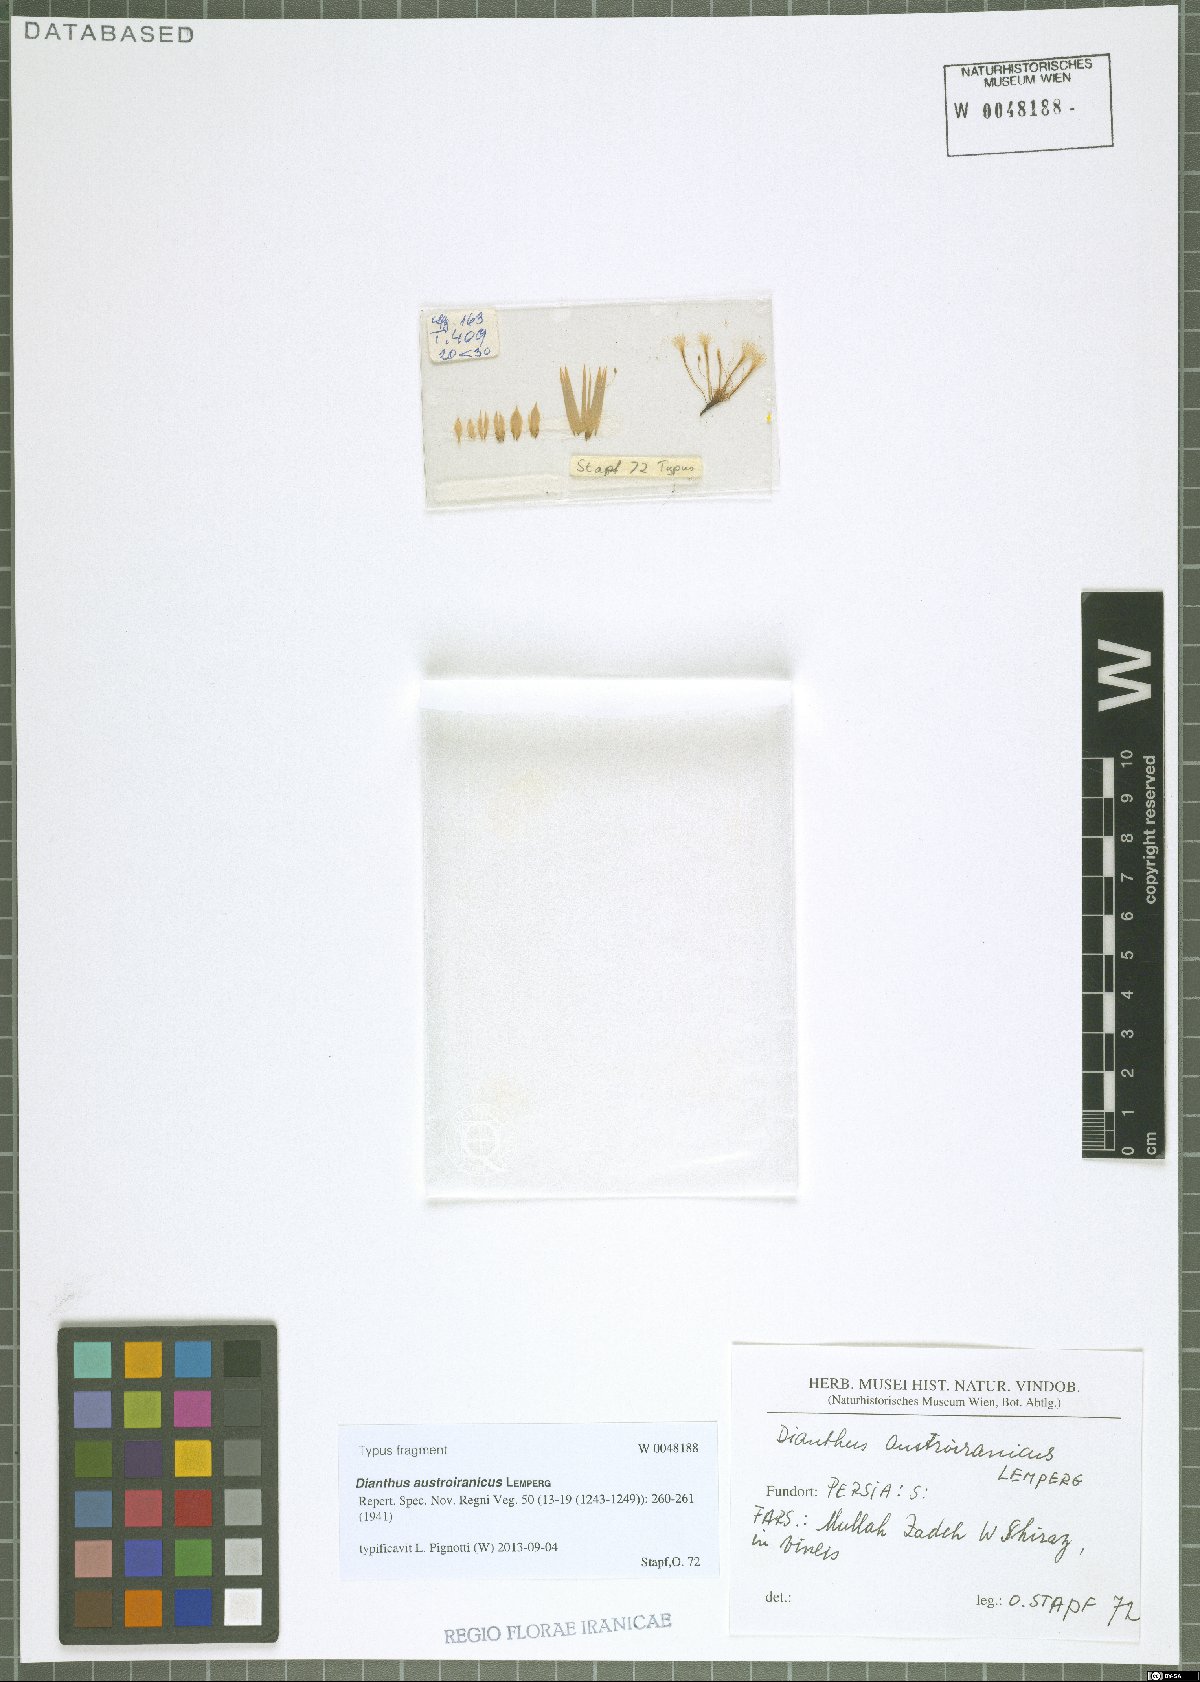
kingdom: Plantae
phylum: Tracheophyta
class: Magnoliopsida
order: Caryophyllales
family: Caryophyllaceae
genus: Dianthus
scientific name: Dianthus austroiranicus
